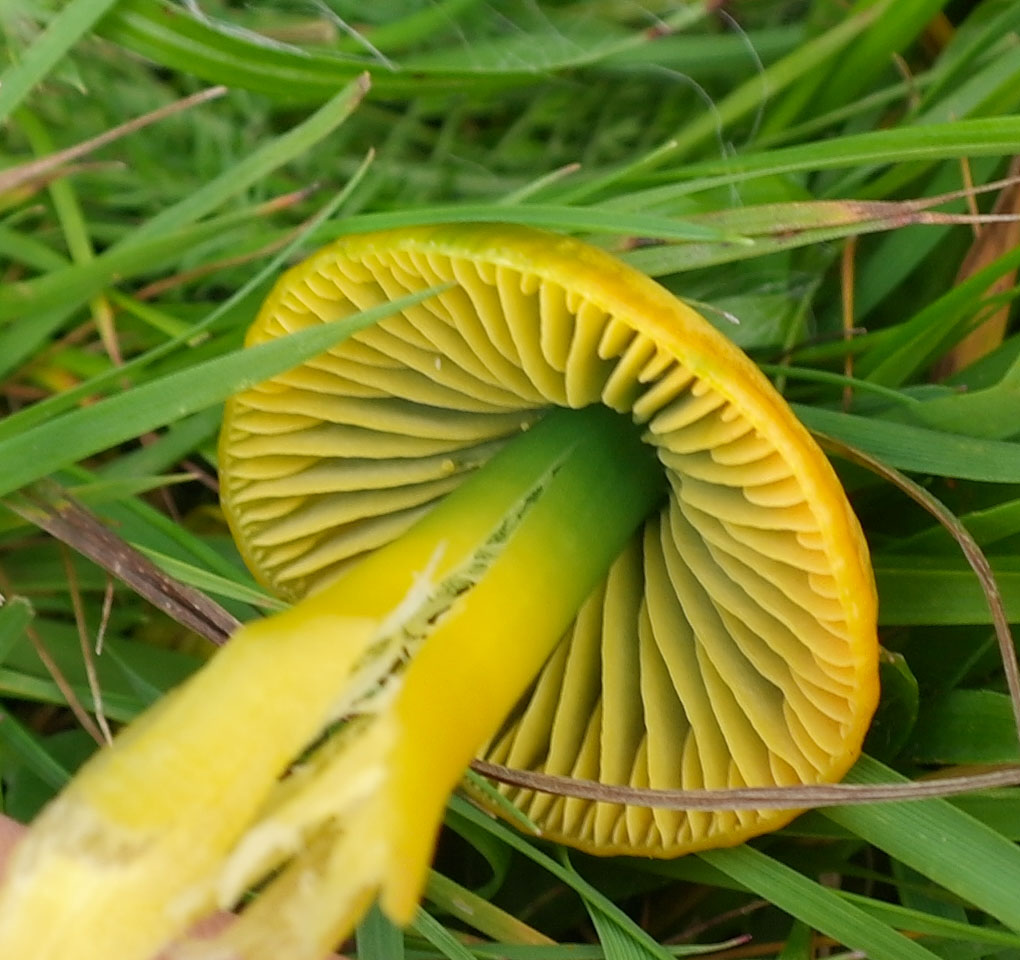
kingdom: Fungi
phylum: Basidiomycota
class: Agaricomycetes
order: Agaricales
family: Hygrophoraceae
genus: Gliophorus
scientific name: Gliophorus psittacinus
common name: papegøje-vokshat
